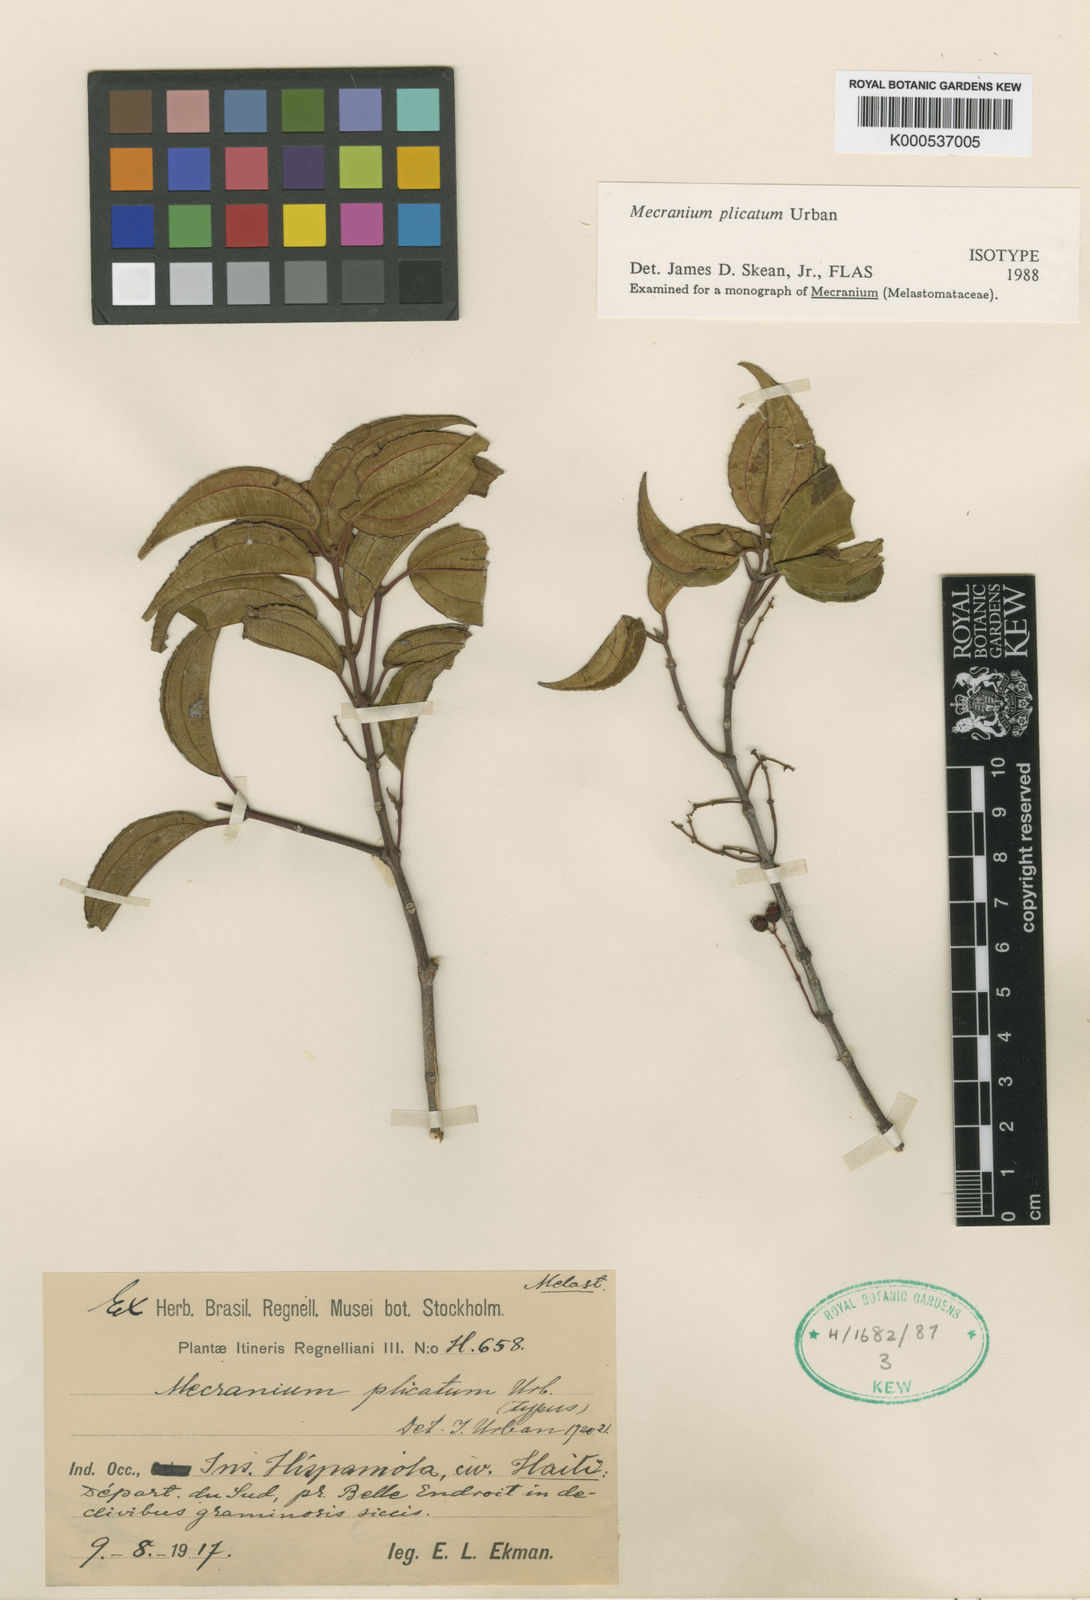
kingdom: Plantae
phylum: Tracheophyta
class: Magnoliopsida
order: Myrtales
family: Melastomataceae
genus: Miconia
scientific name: Miconia plicatifolia
